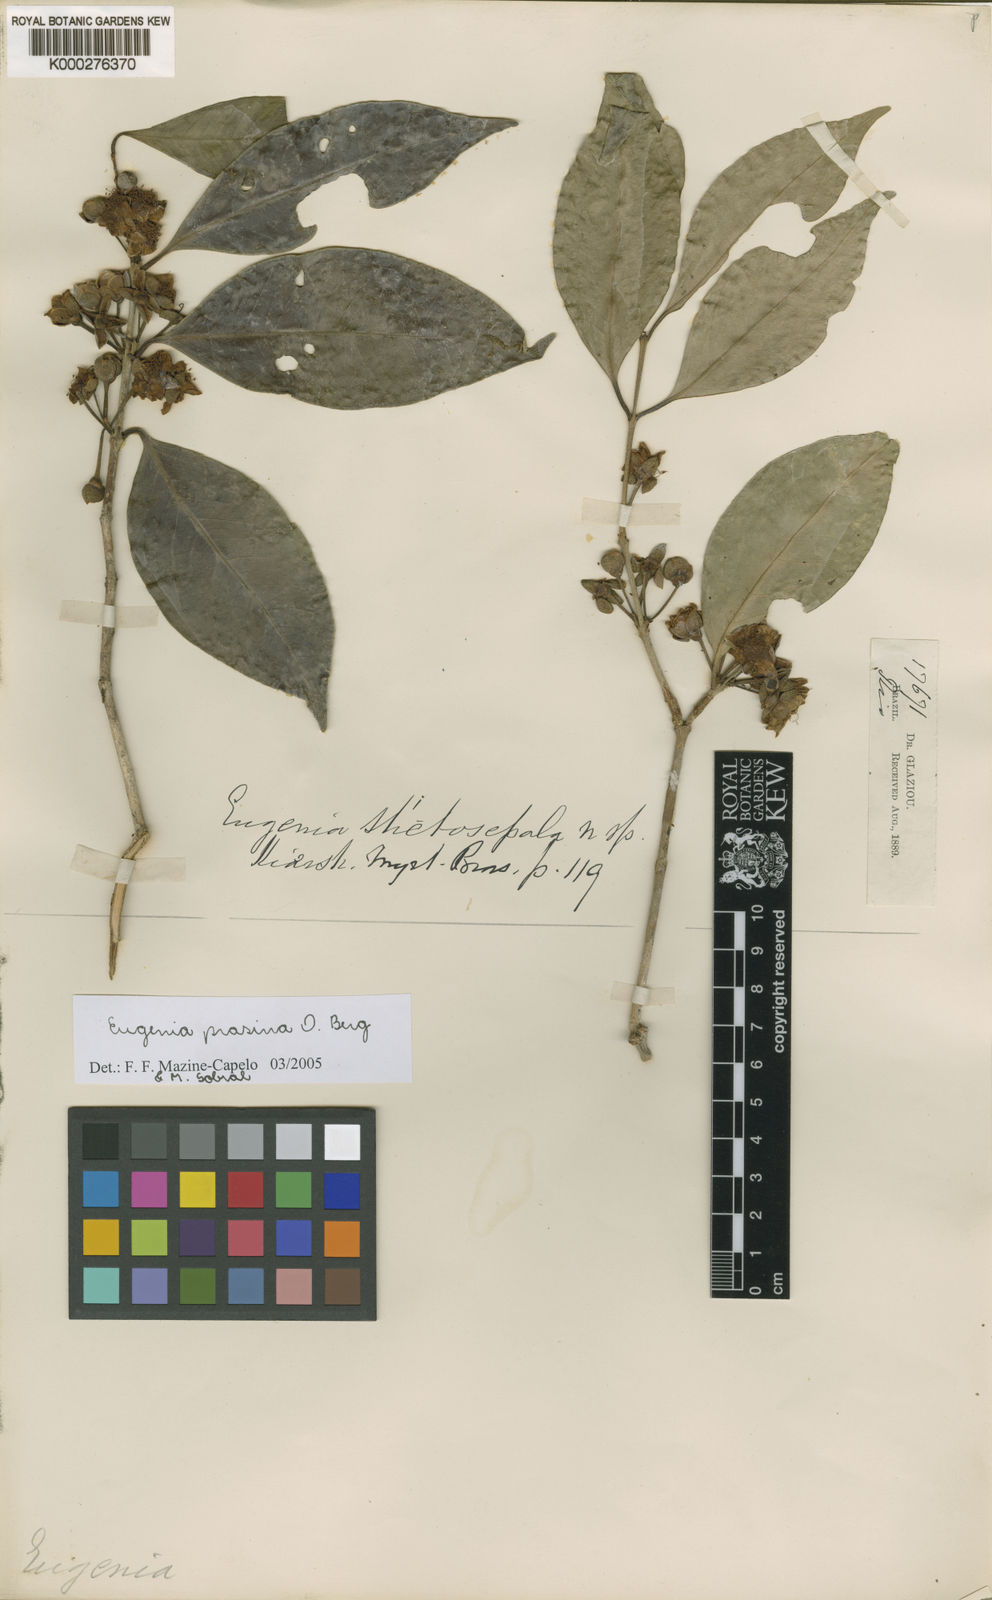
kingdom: Plantae
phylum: Tracheophyta
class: Magnoliopsida
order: Myrtales
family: Myrtaceae
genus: Eugenia
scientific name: Eugenia prasina
